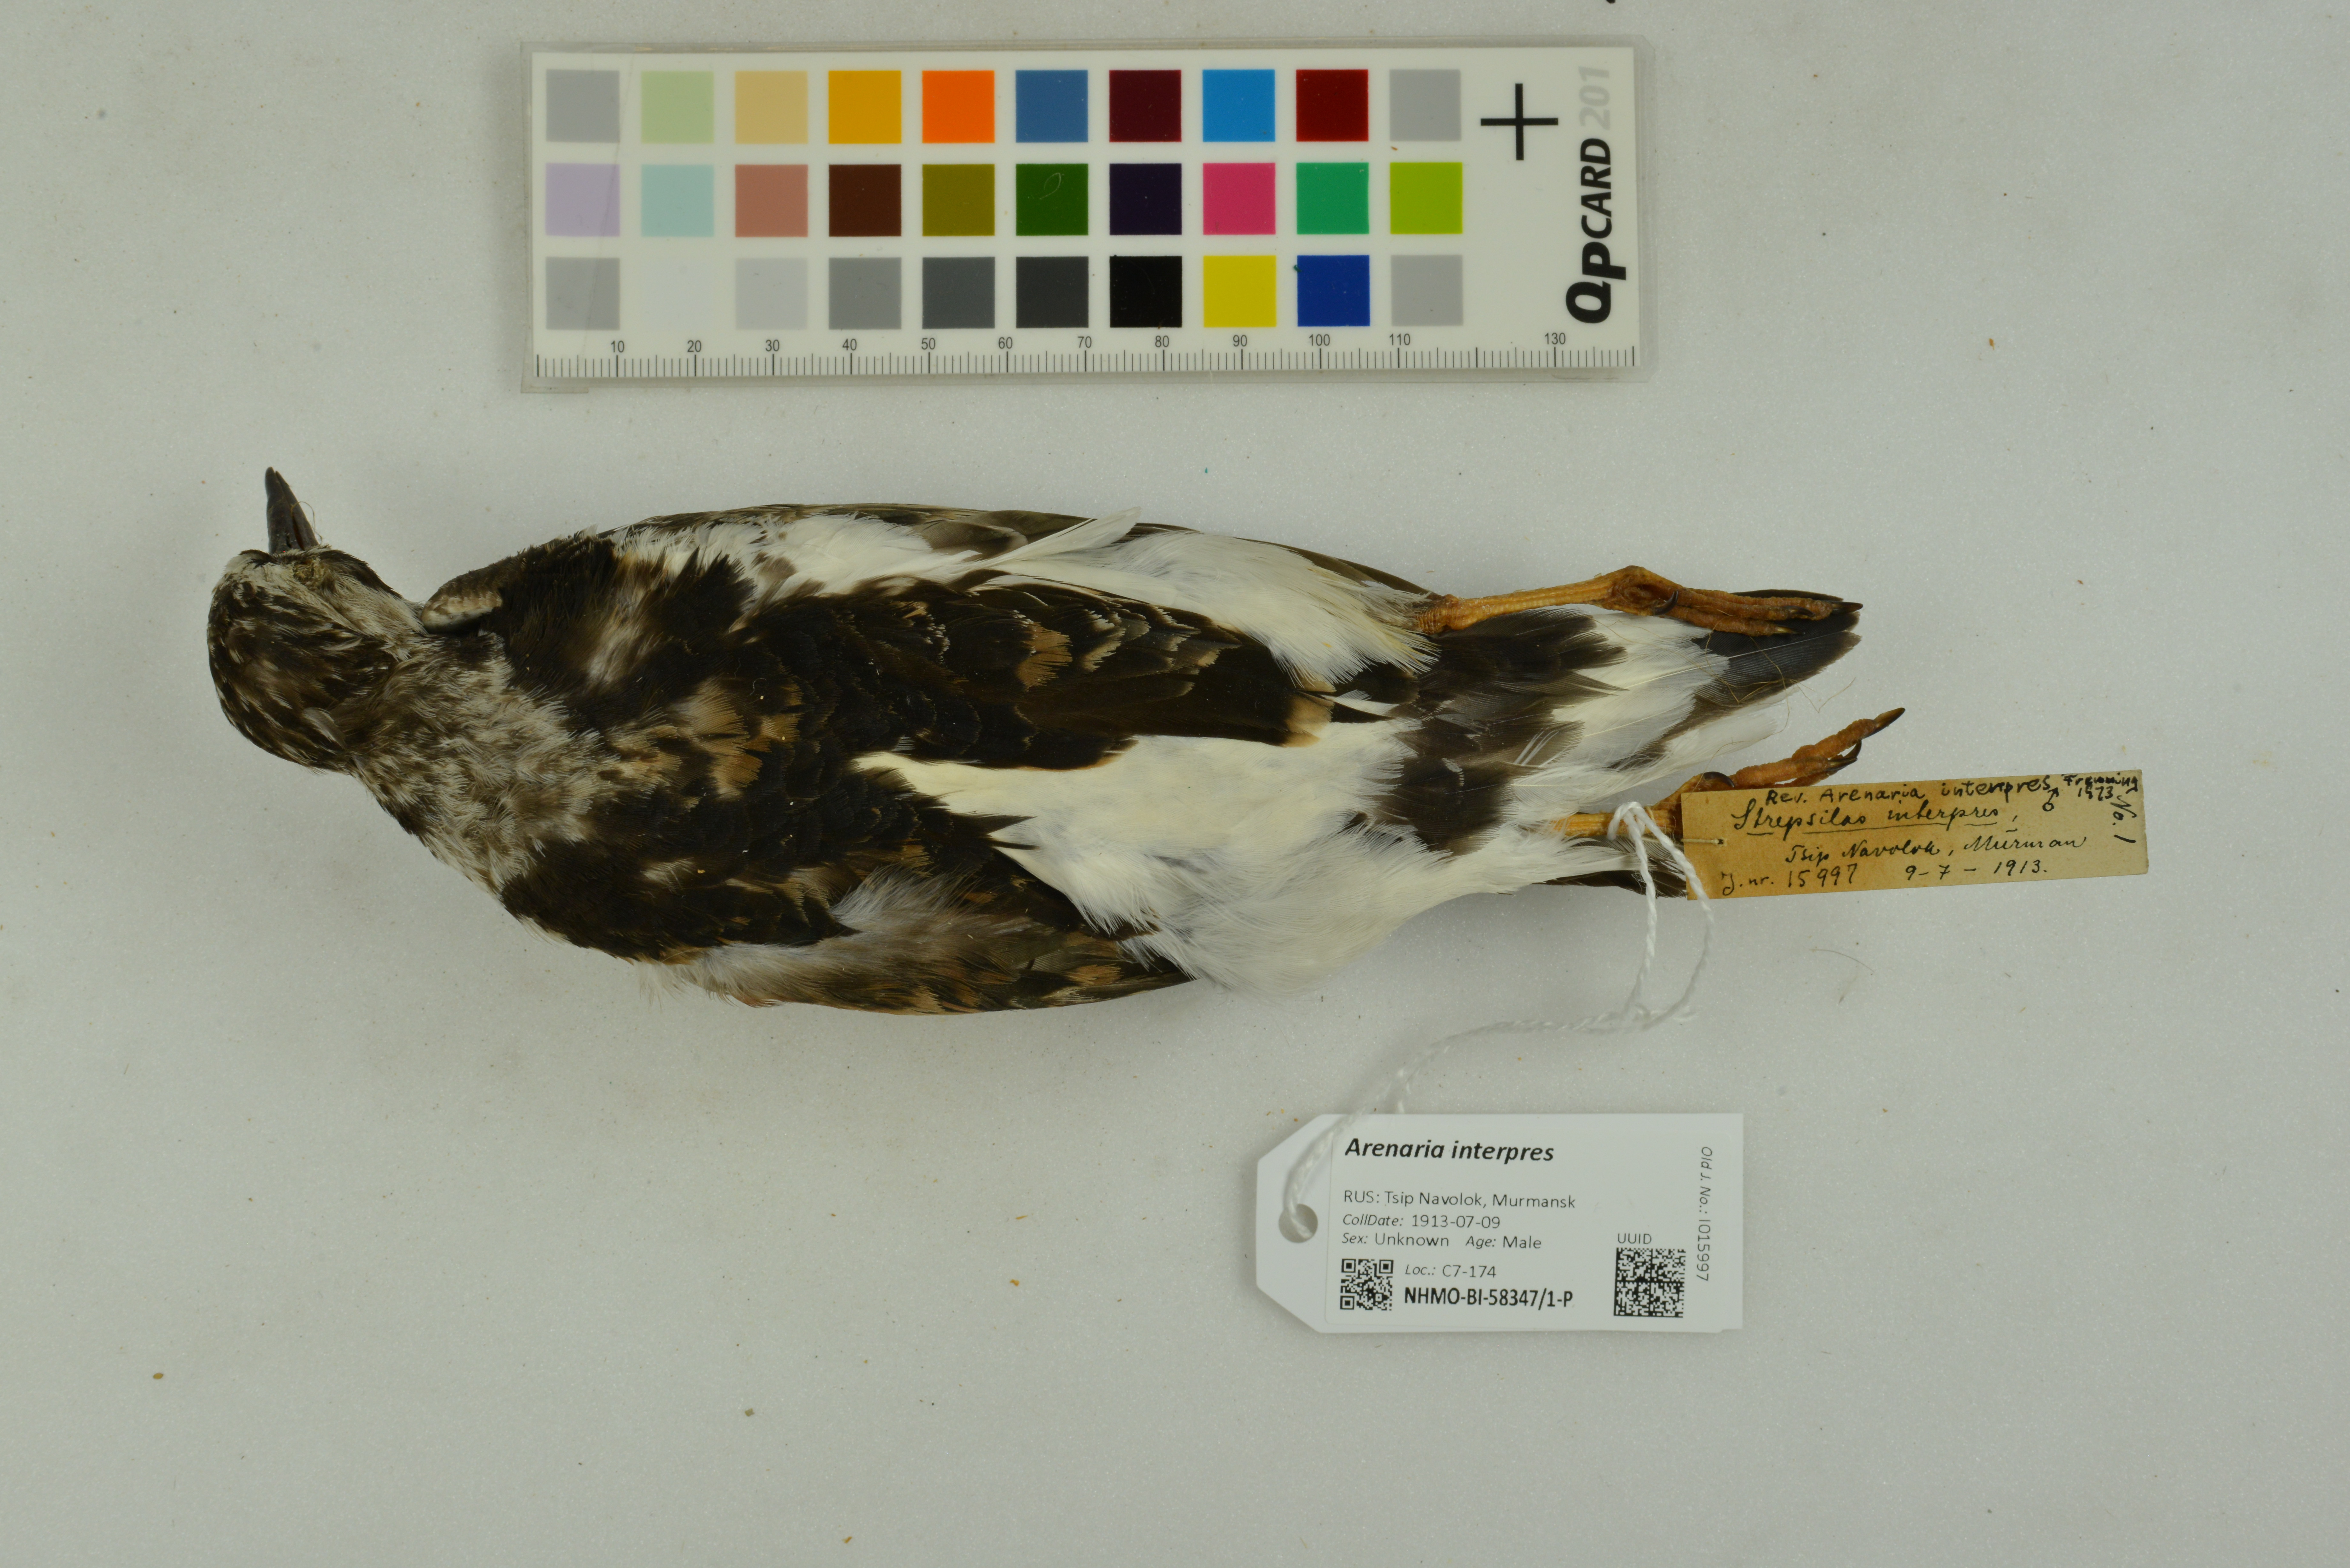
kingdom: Animalia
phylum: Chordata
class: Aves
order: Charadriiformes
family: Scolopacidae
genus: Arenaria
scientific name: Arenaria interpres
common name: Ruddy turnstone
